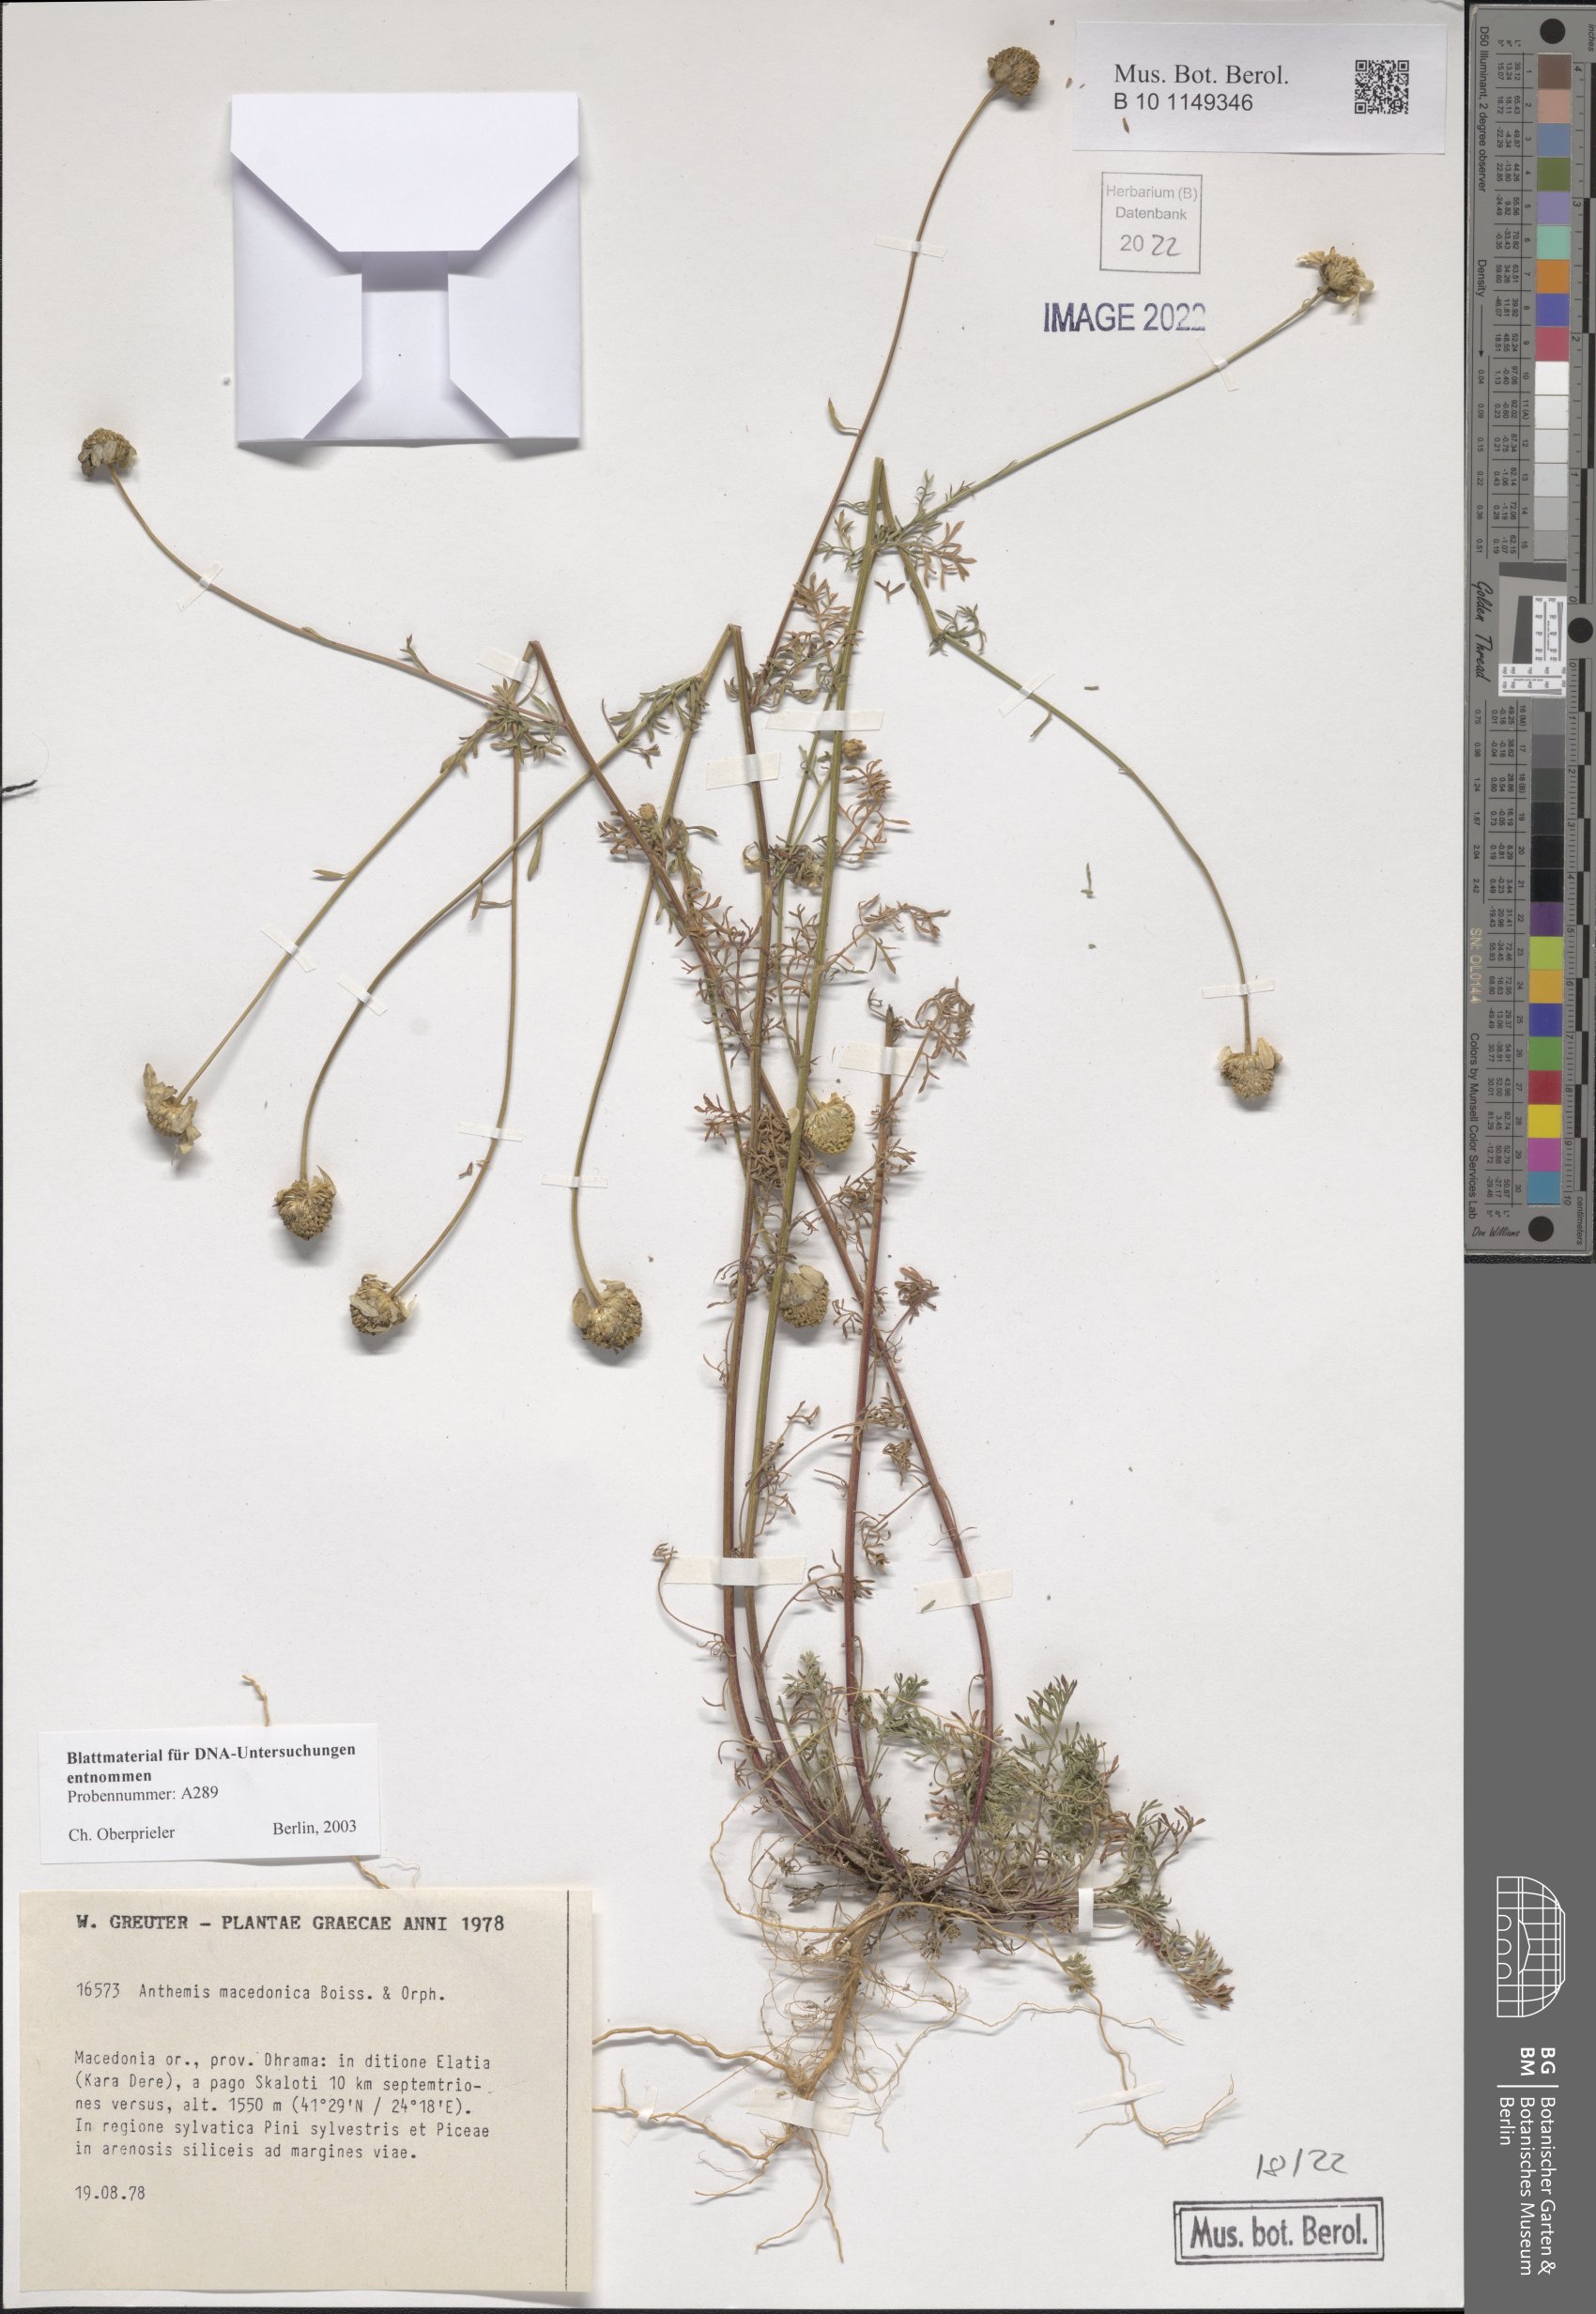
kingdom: Plantae
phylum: Tracheophyta
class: Magnoliopsida
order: Asterales
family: Asteraceae
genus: Anthemis
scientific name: Anthemis macedonica
